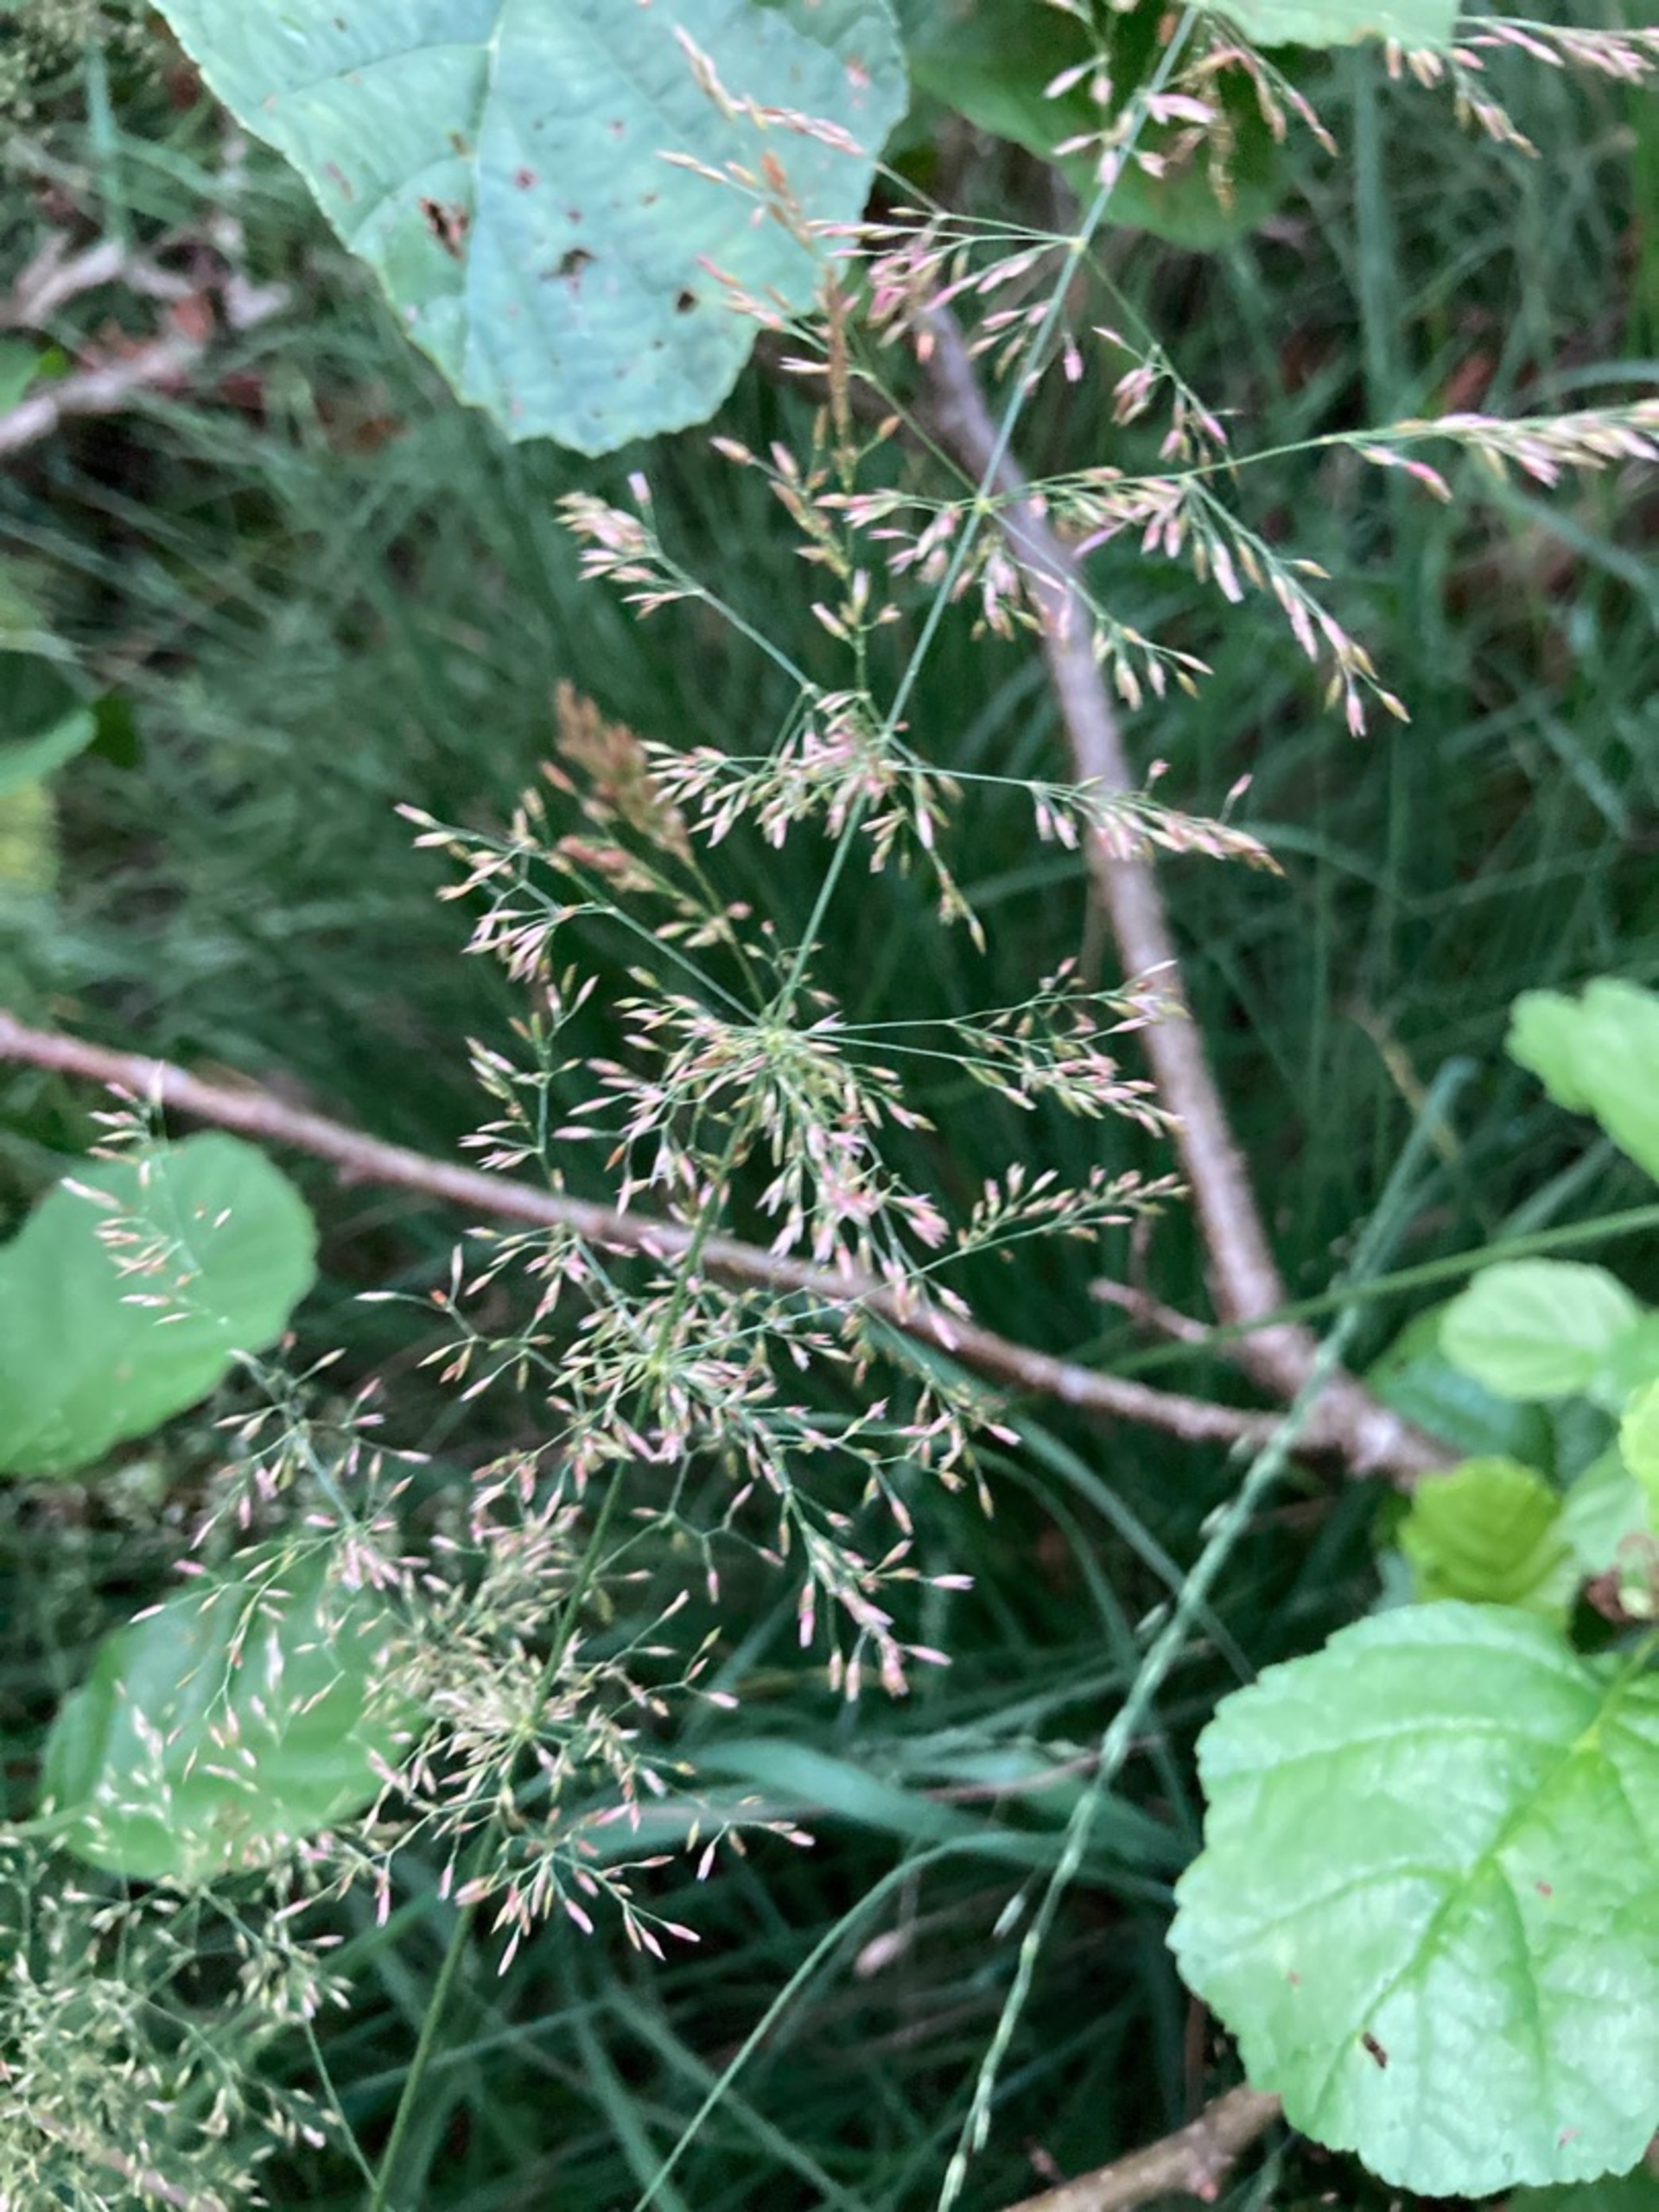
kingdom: Plantae
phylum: Tracheophyta
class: Liliopsida
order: Poales
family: Poaceae
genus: Agrostis
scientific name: Agrostis gigantea
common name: Stortoppet hvene
